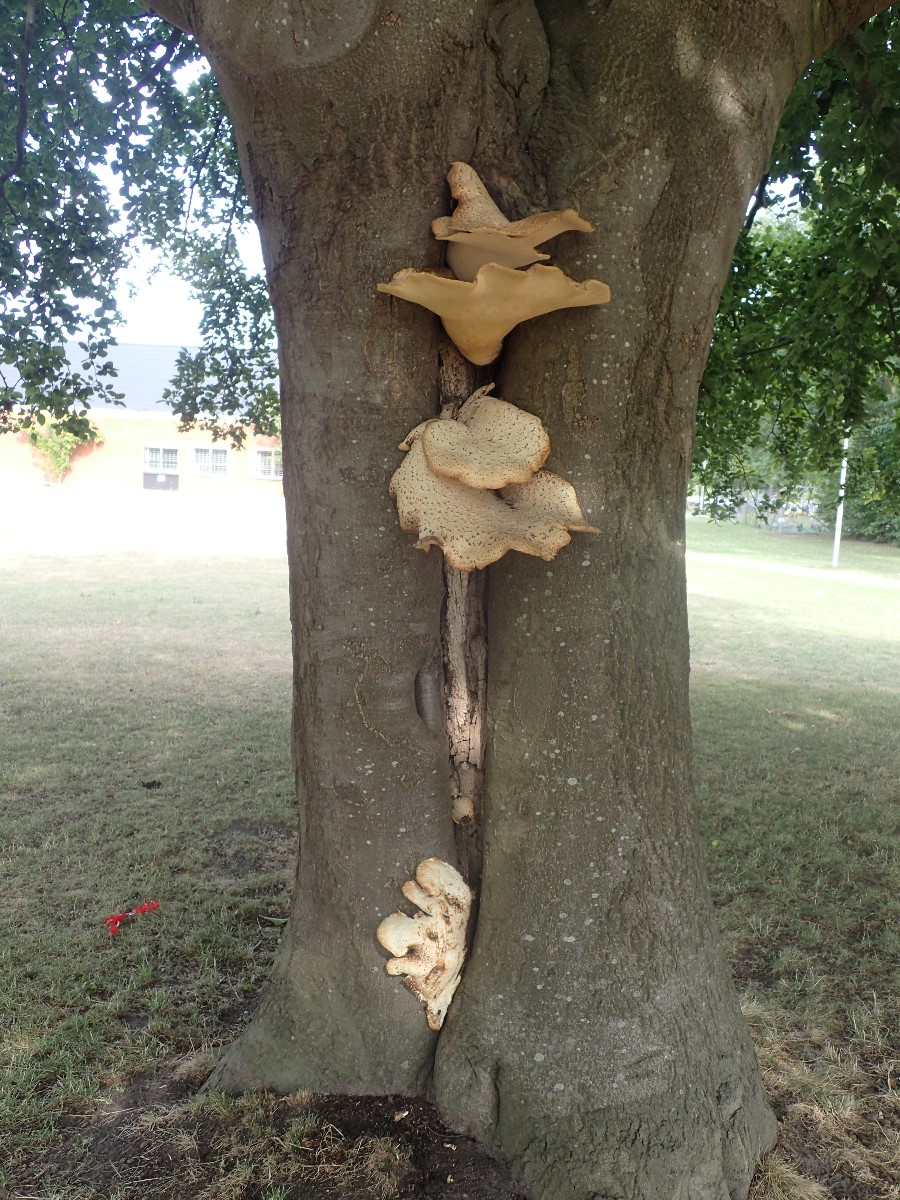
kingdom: Fungi
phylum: Basidiomycota
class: Agaricomycetes
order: Polyporales
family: Polyporaceae
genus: Cerioporus
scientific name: Cerioporus squamosus
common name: skællet stilkporesvamp
